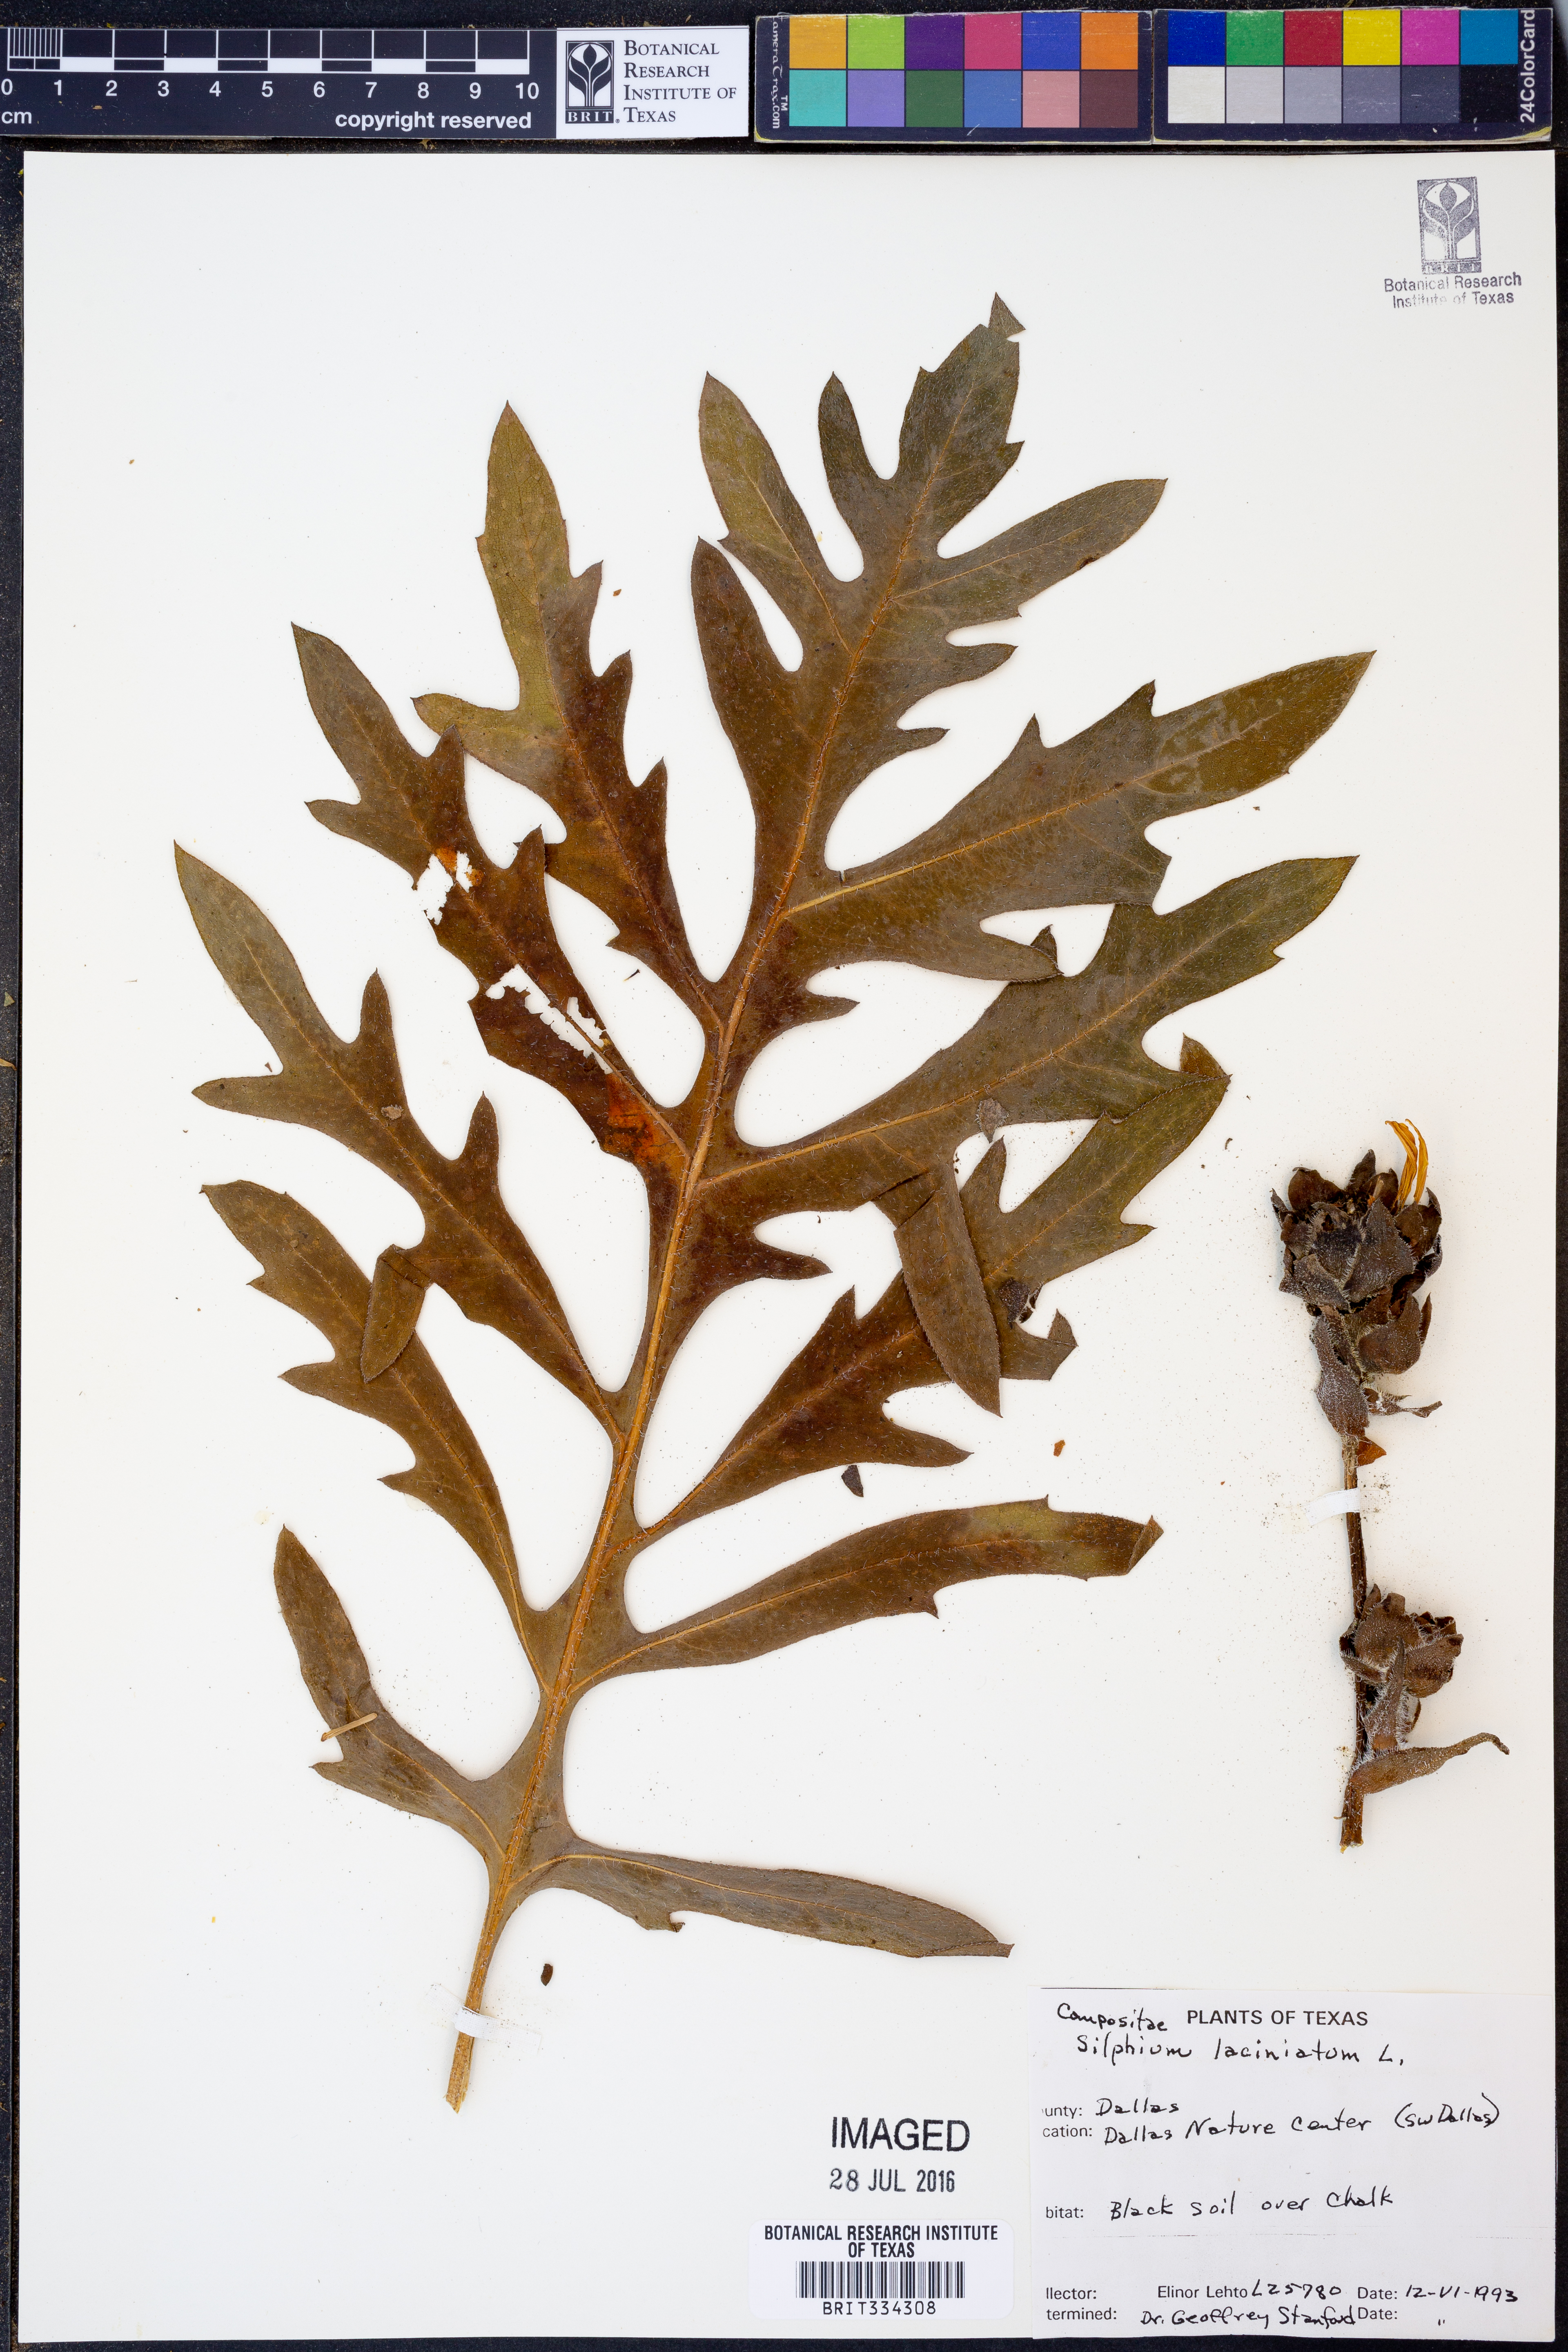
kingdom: Plantae
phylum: Tracheophyta
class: Magnoliopsida
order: Asterales
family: Asteraceae
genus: Silphium
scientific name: Silphium laciniatum
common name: Polarplant
